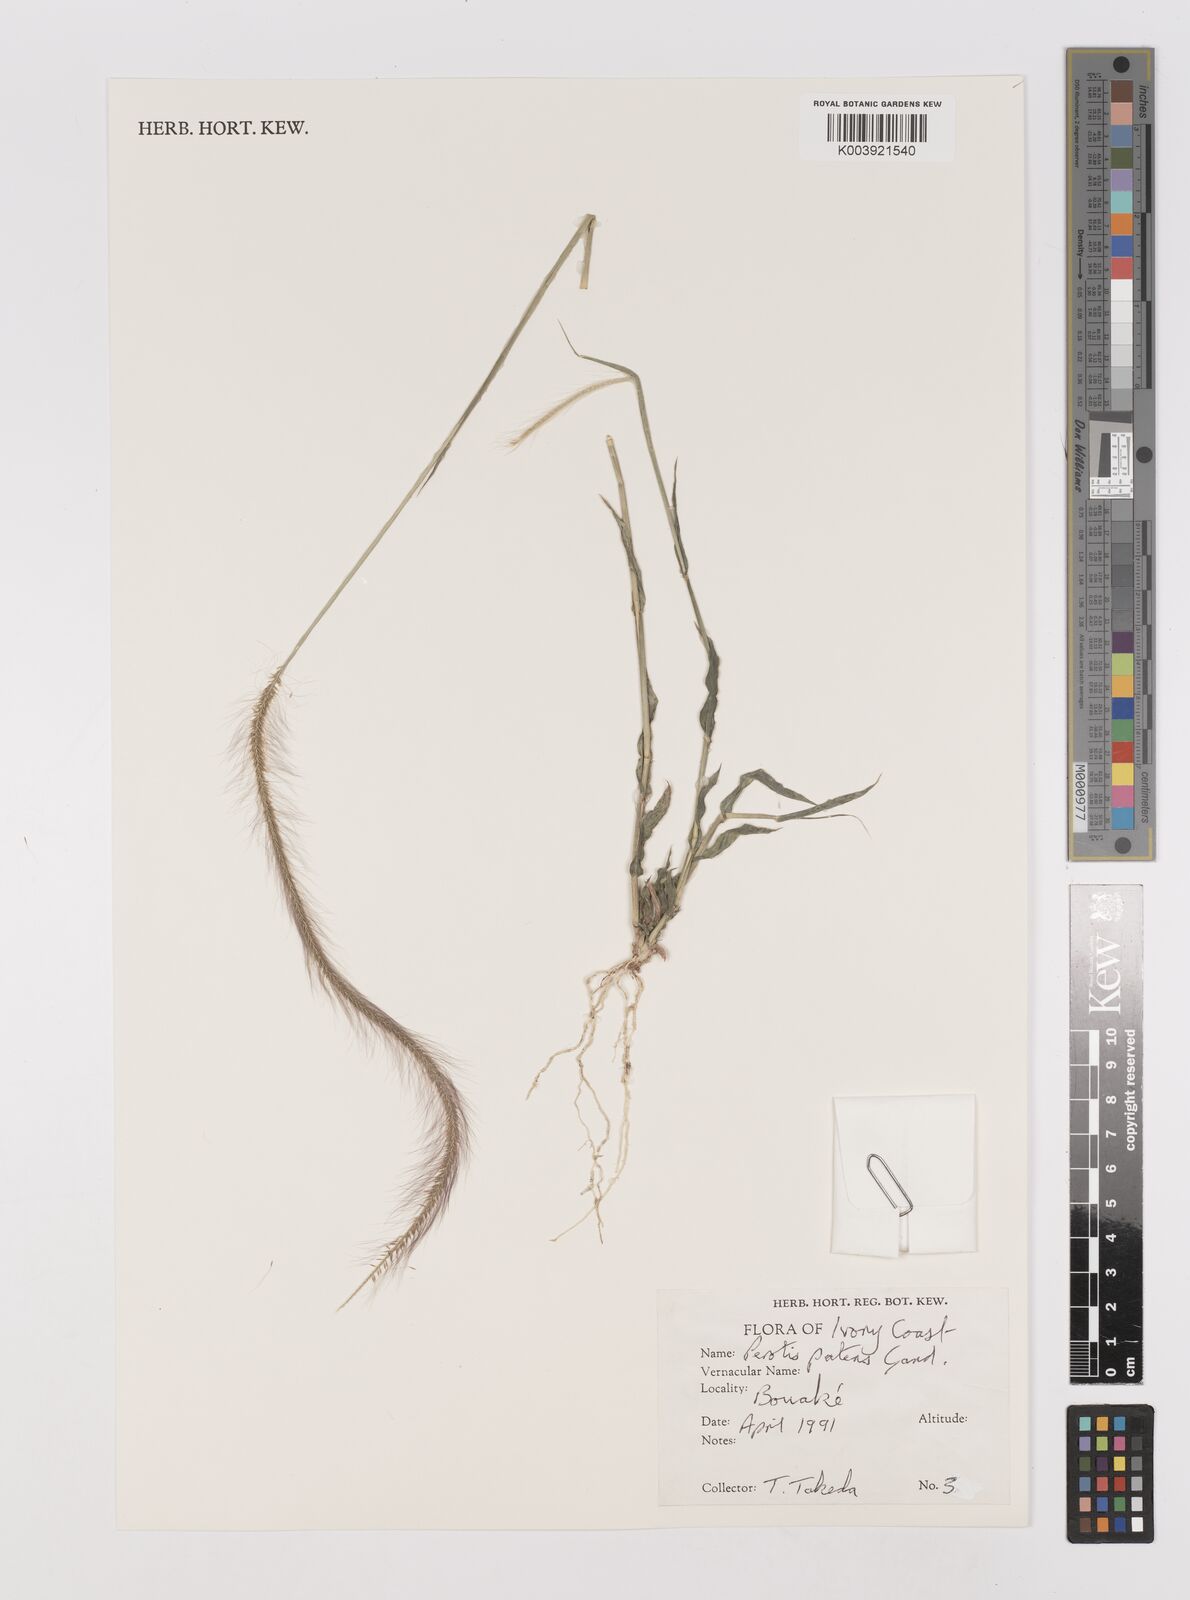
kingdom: Plantae
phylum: Tracheophyta
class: Liliopsida
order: Poales
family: Poaceae
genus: Perotis
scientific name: Perotis patens
